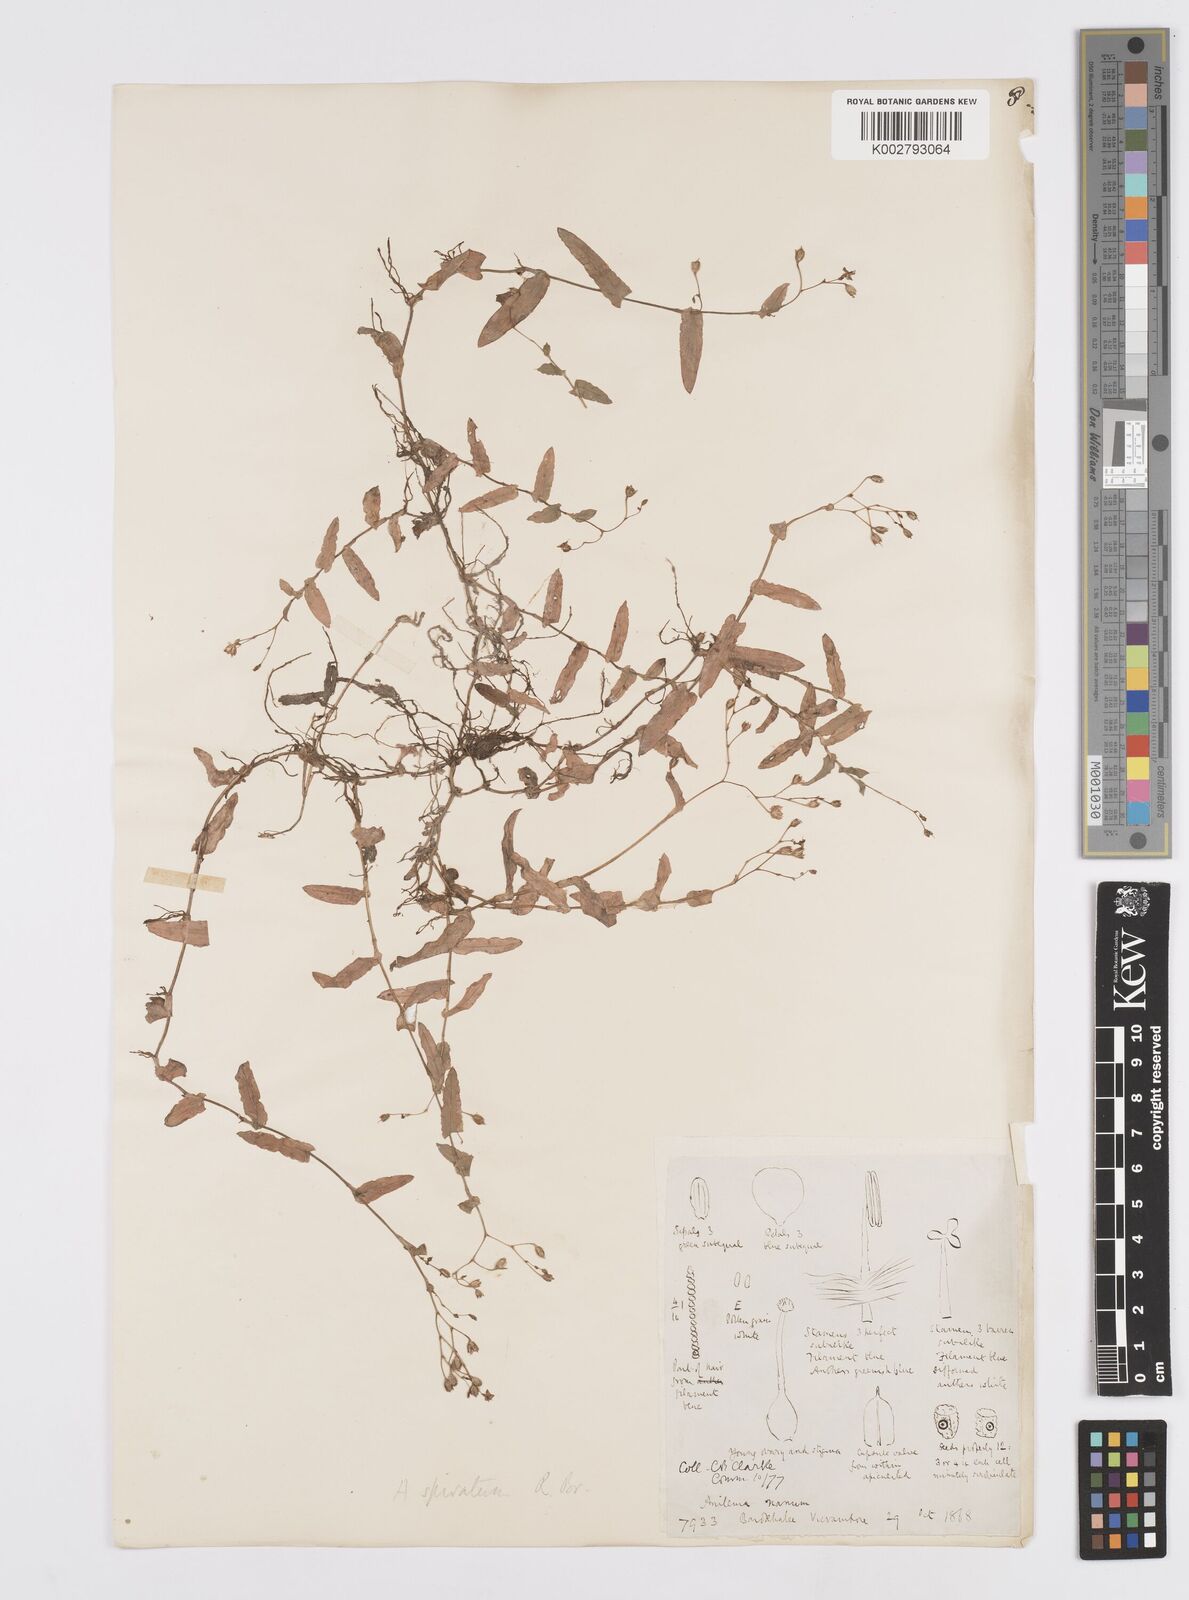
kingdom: Plantae
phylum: Tracheophyta
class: Liliopsida
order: Commelinales
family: Commelinaceae
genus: Murdannia
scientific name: Murdannia spirata
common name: Asiatic dewflower
